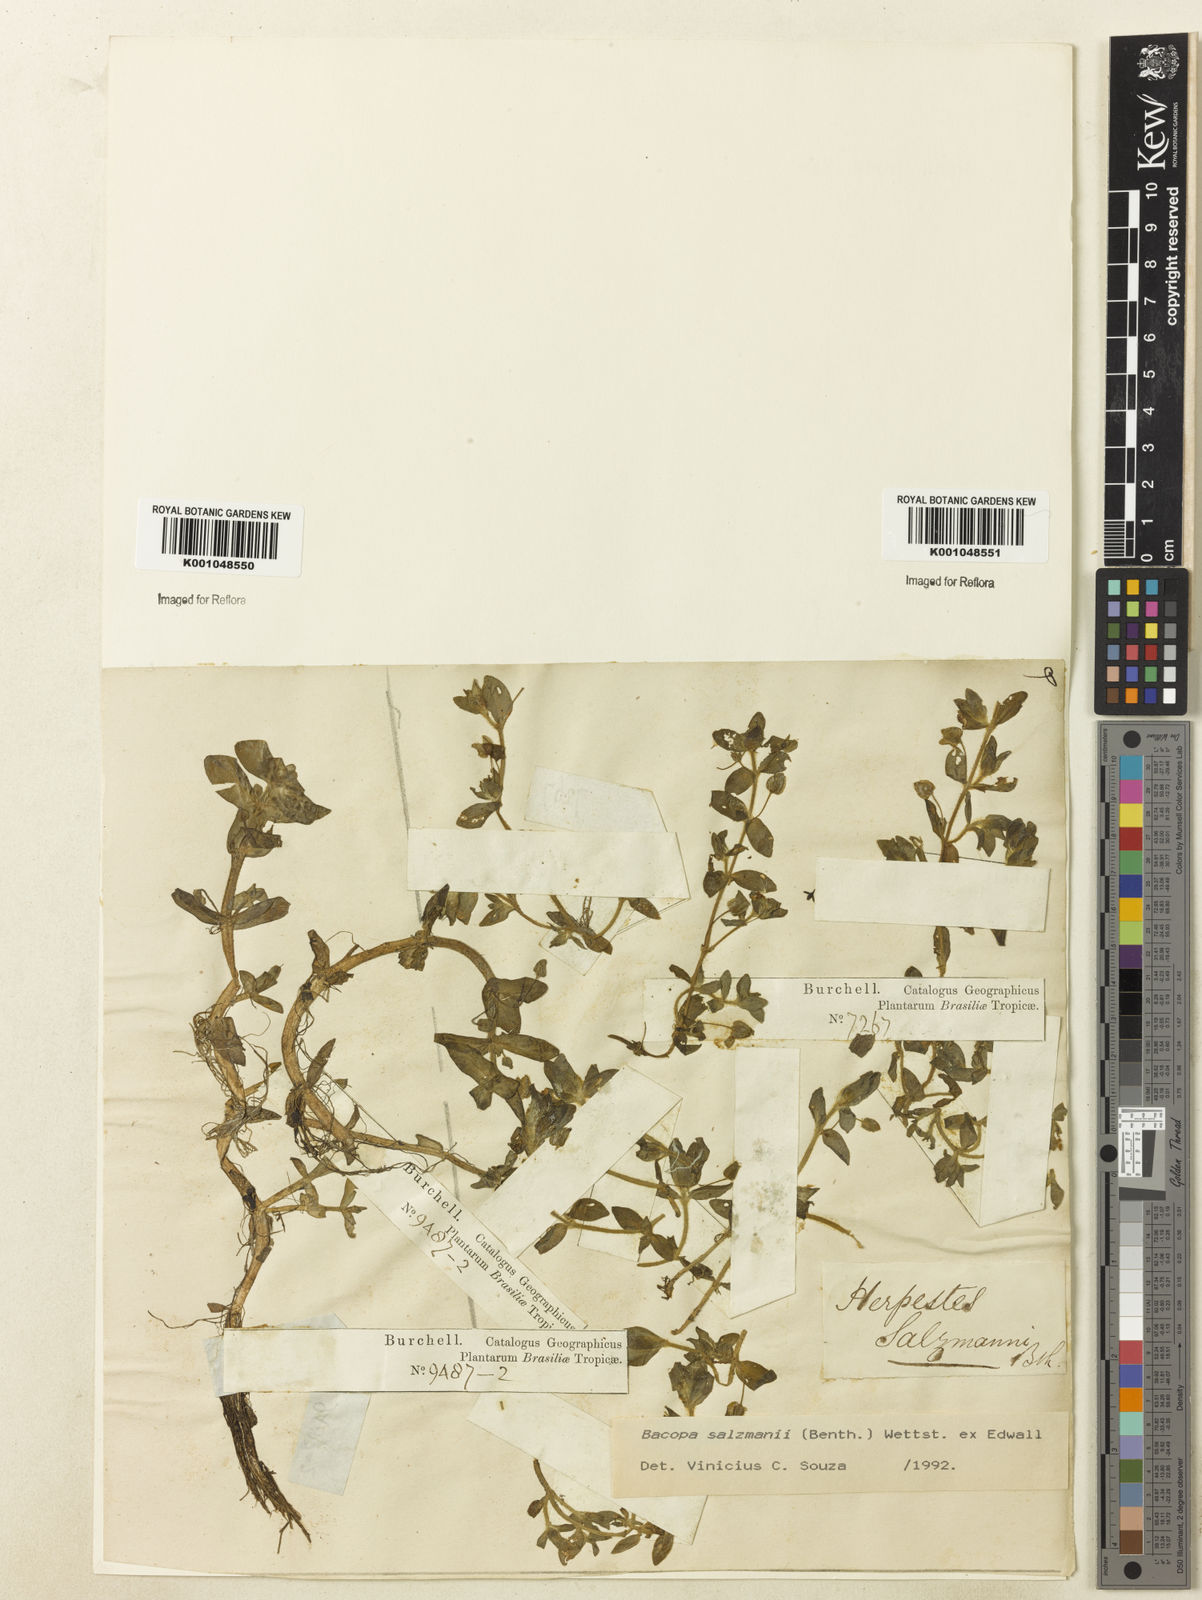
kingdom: Plantae
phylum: Tracheophyta
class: Magnoliopsida
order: Lamiales
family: Plantaginaceae
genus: Bacopa
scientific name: Bacopa salzmannii
